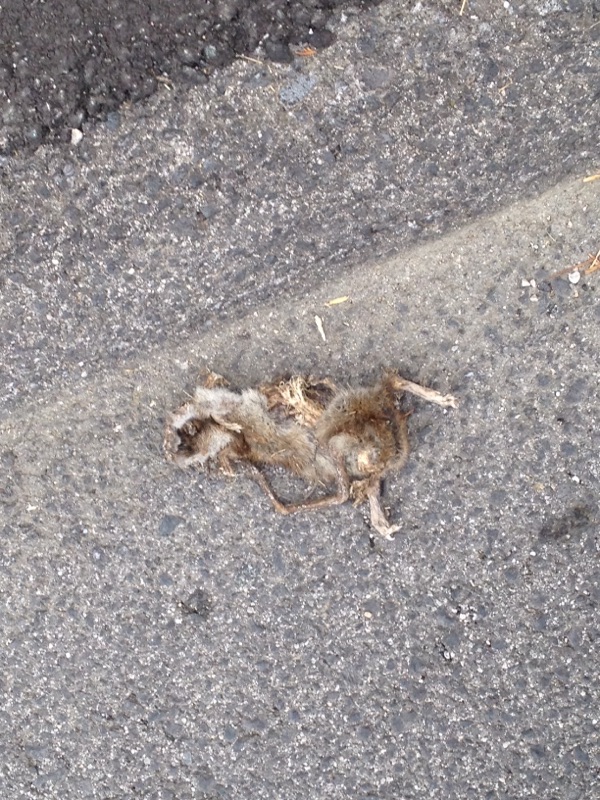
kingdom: Animalia
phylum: Chordata
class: Mammalia
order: Rodentia
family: Muridae
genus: Rattus
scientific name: Rattus norvegicus
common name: Brown rat
